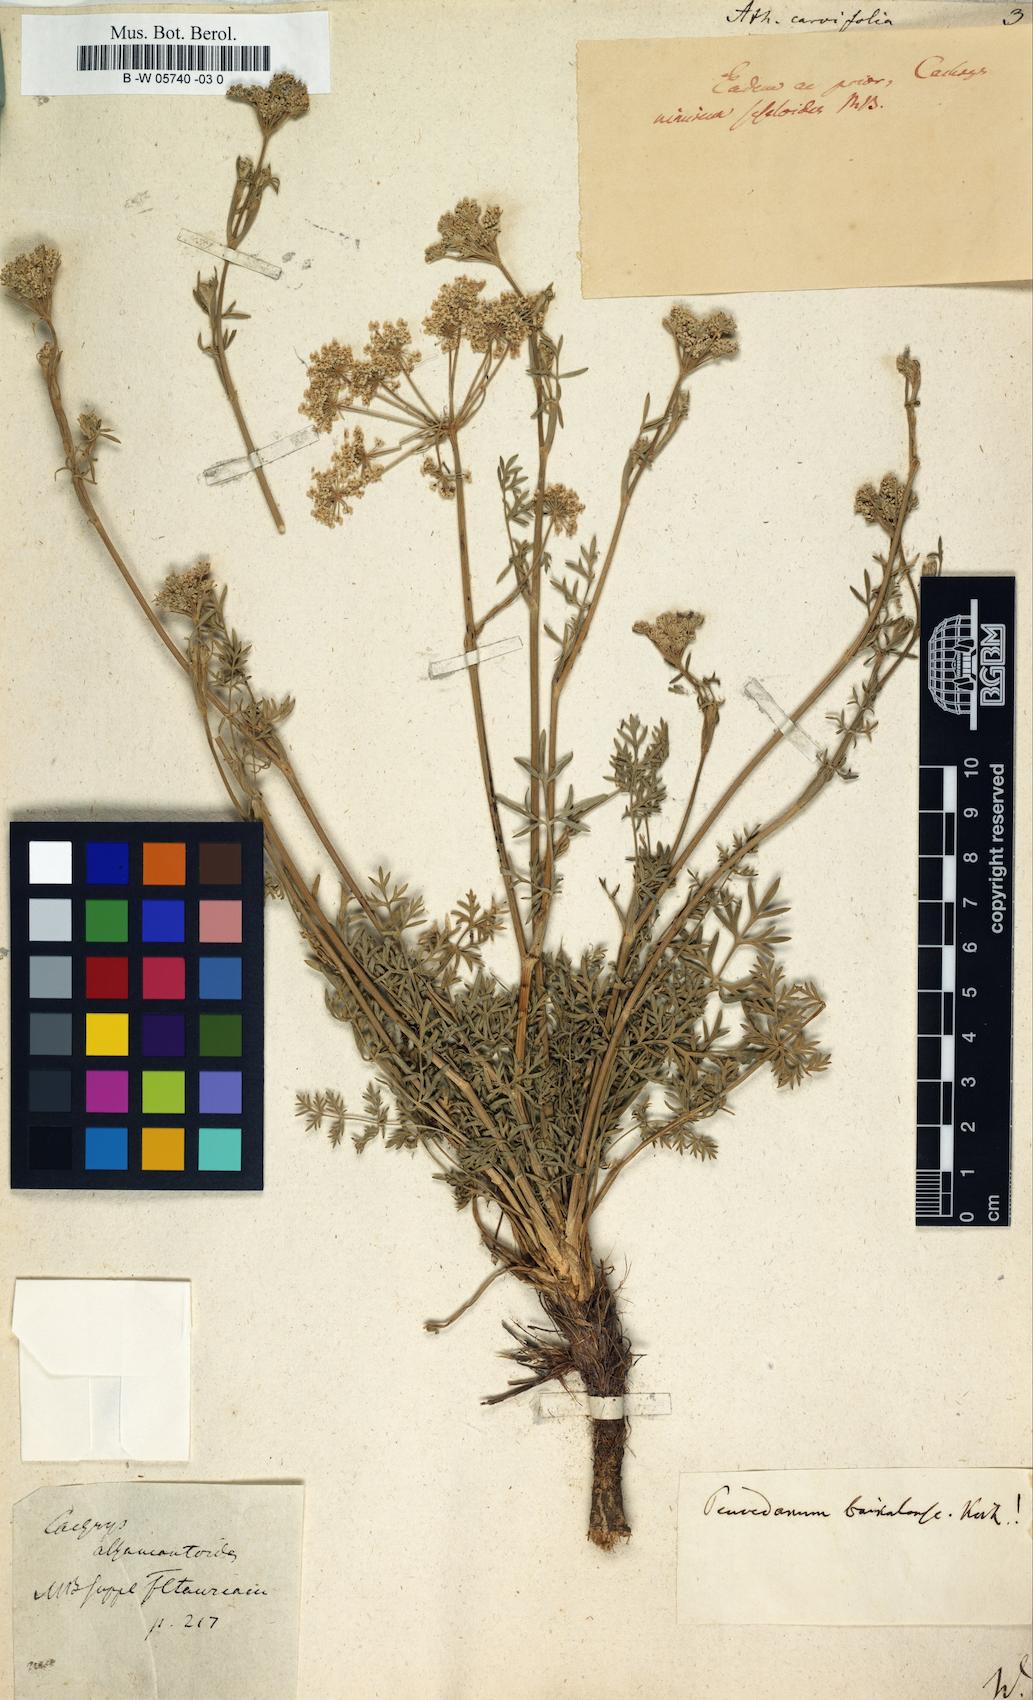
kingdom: Plantae
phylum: Tracheophyta
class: Magnoliopsida
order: Apiales
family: Apiaceae
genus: Athamanta
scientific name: Athamanta carvifolia
